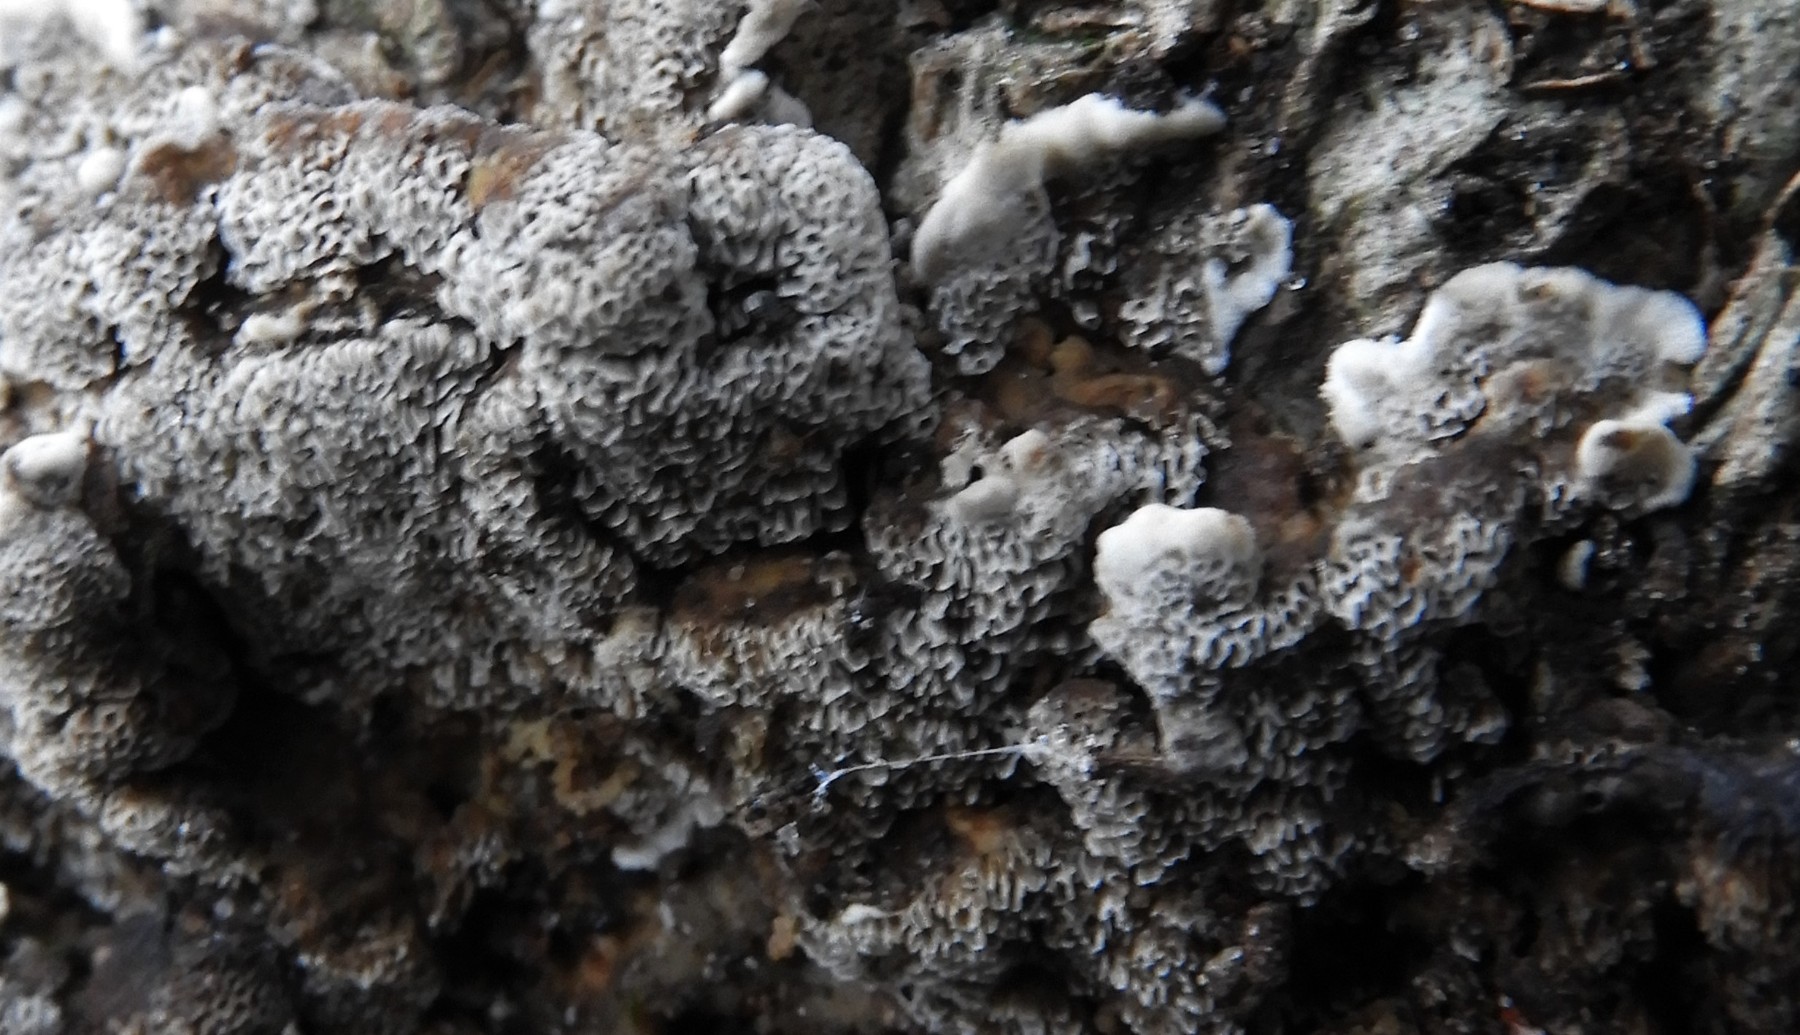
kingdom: Fungi
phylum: Basidiomycota
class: Agaricomycetes
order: Polyporales
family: Polyporaceae
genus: Podofomes
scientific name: Podofomes mollis
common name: blød begporesvamp
